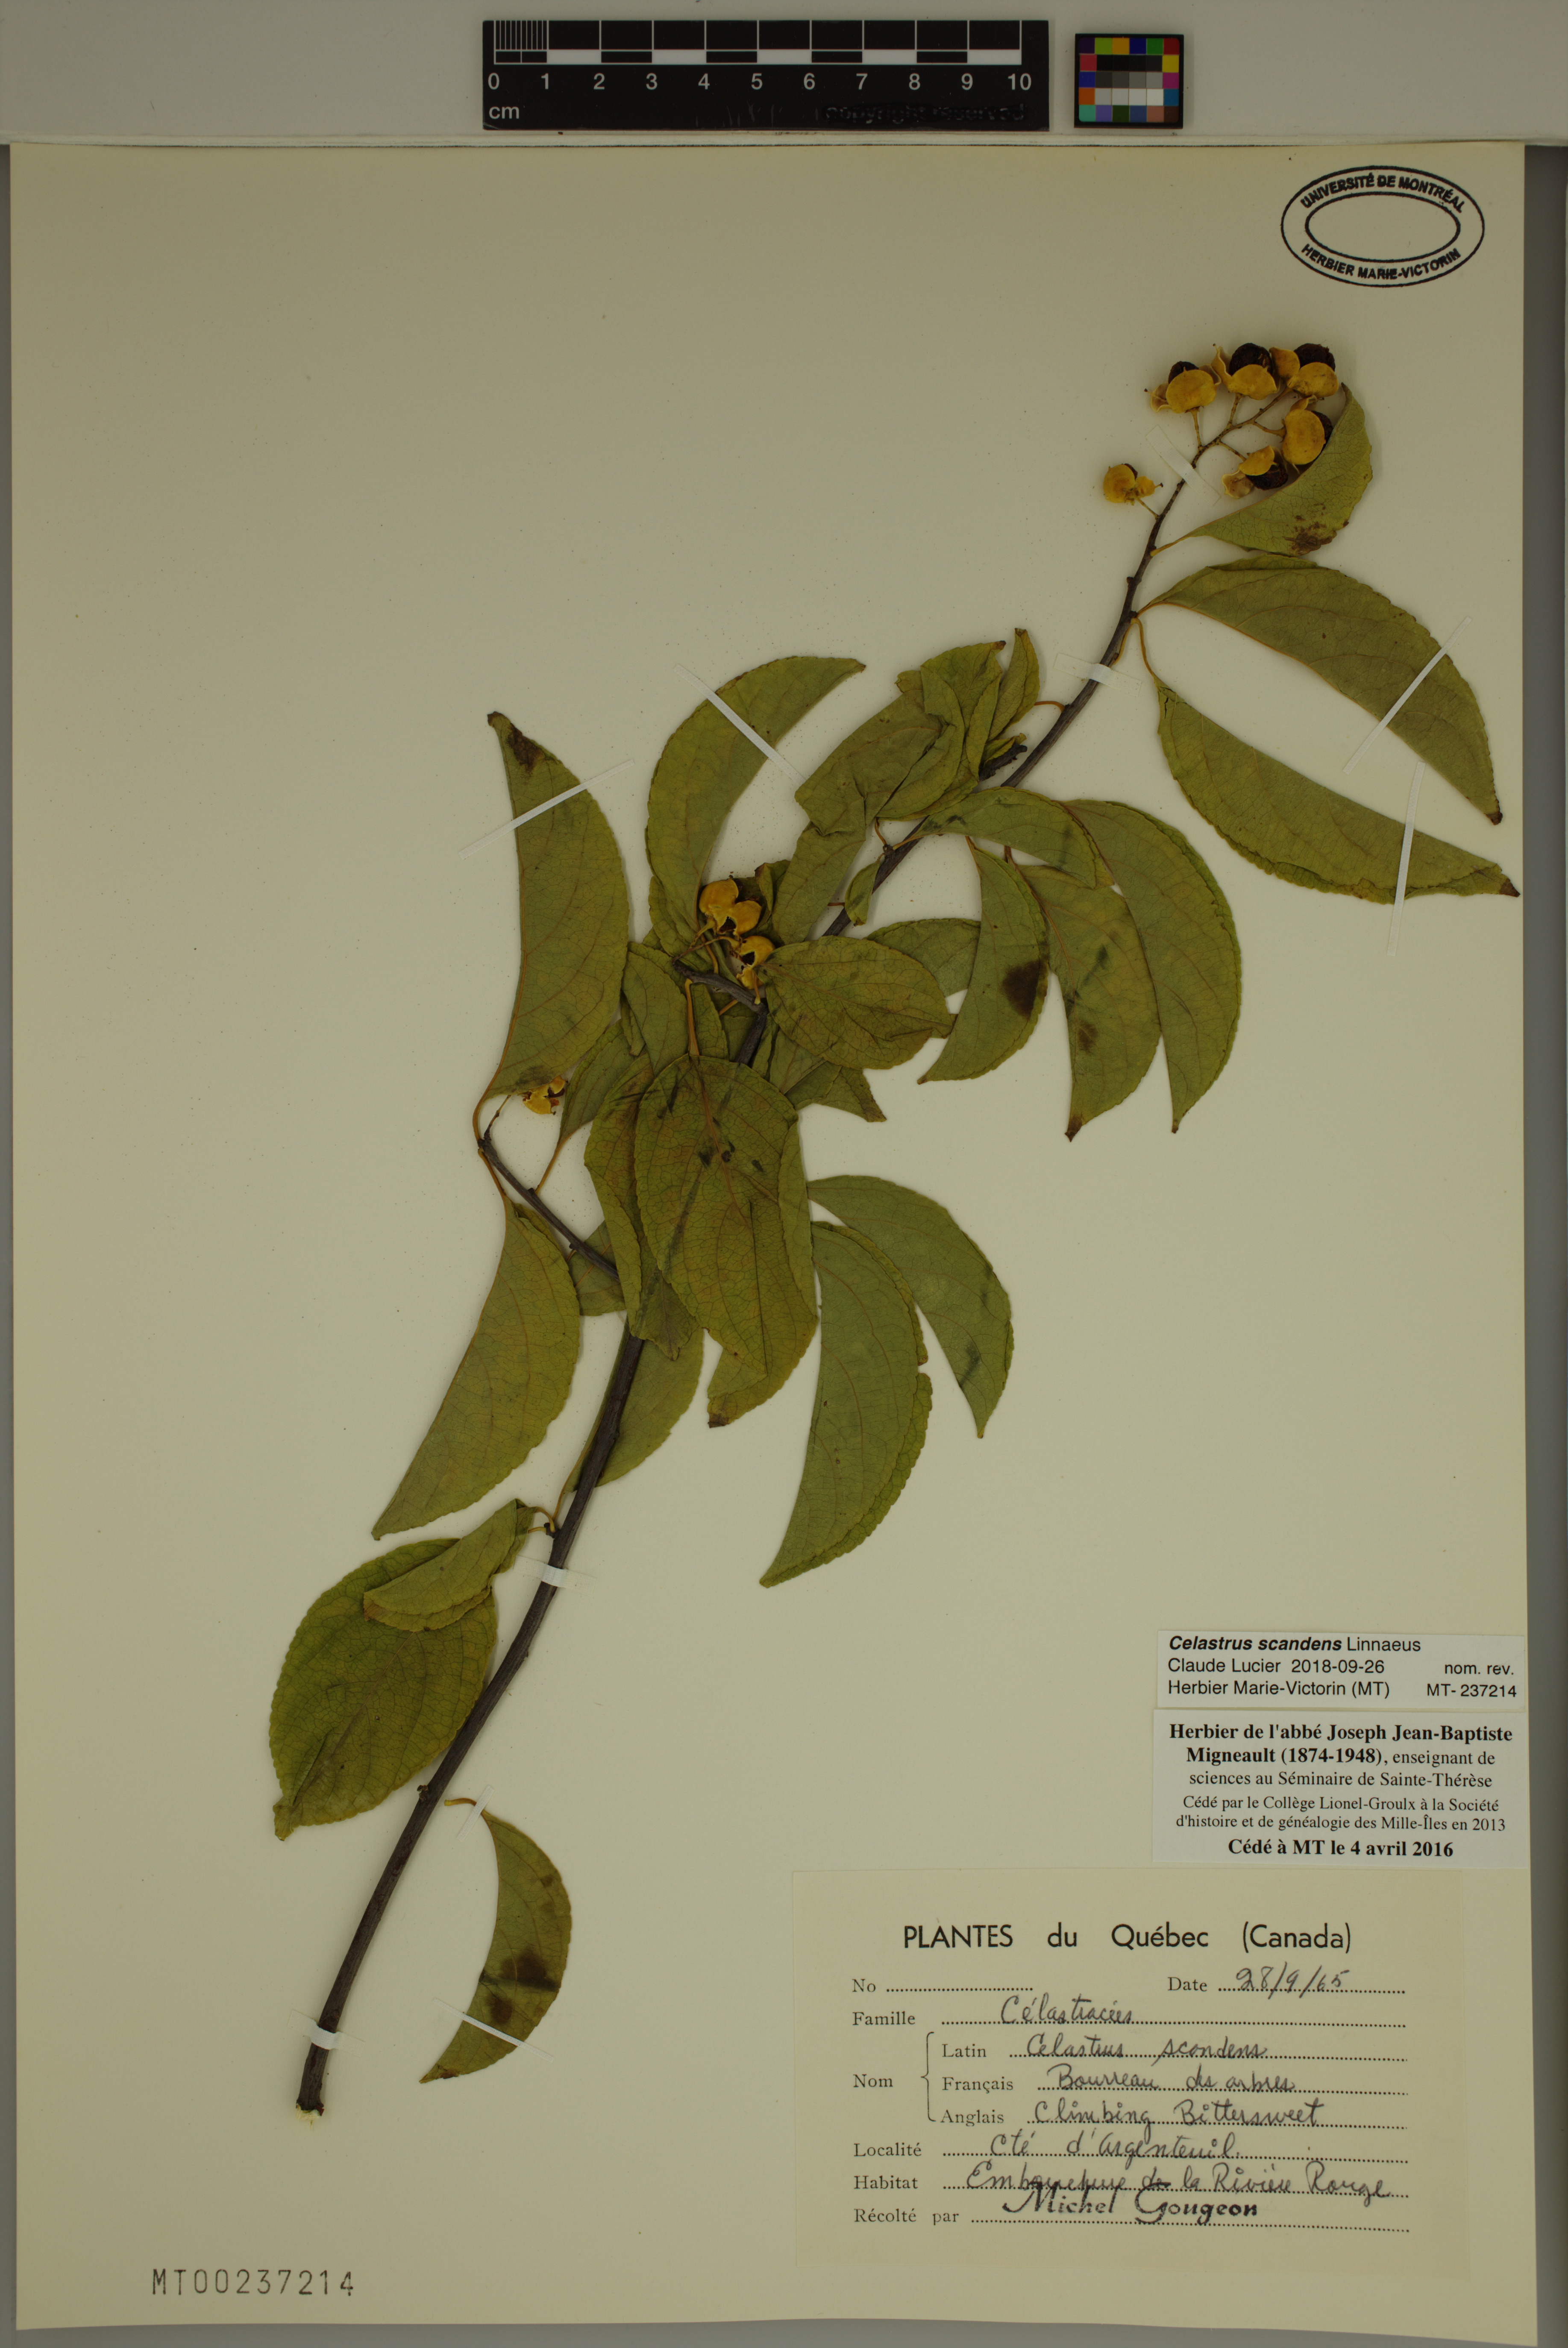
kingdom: Plantae
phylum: Tracheophyta
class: Magnoliopsida
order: Celastrales
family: Celastraceae
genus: Celastrus
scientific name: Celastrus scandens
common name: American bittersweet
